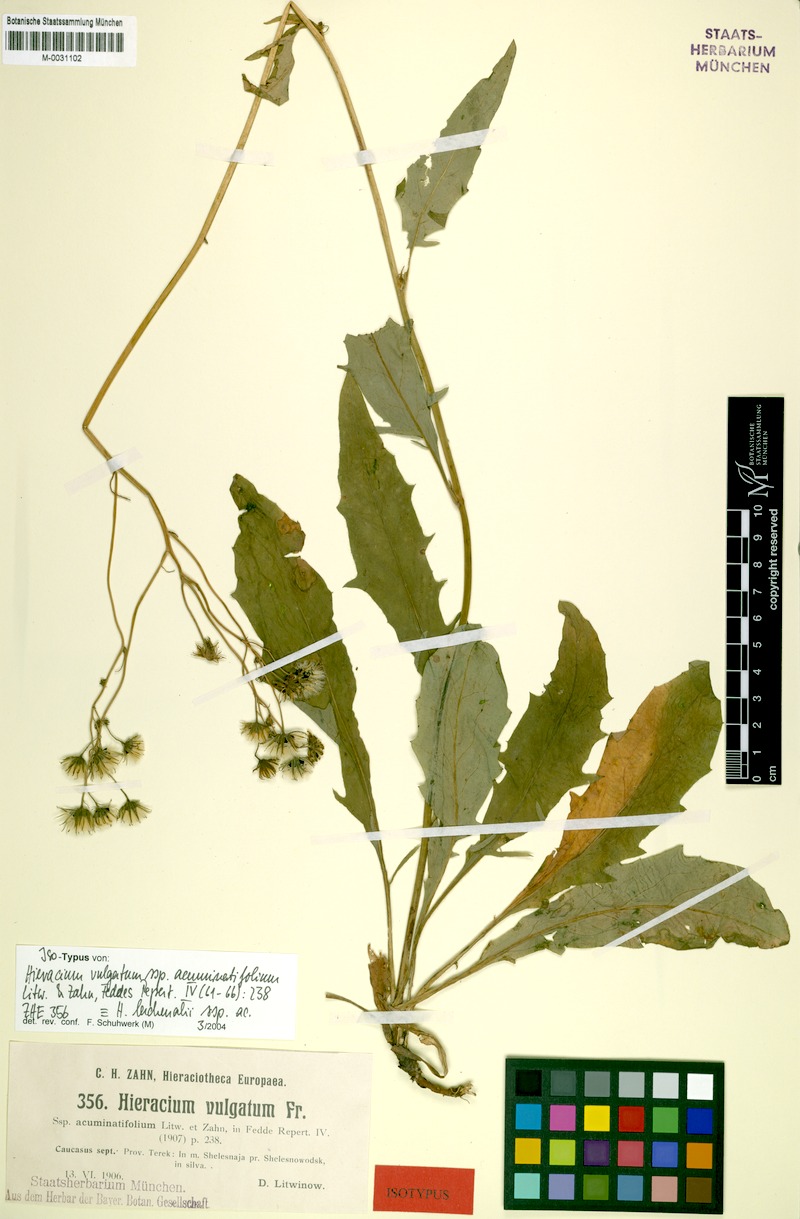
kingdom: Plantae
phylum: Tracheophyta
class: Magnoliopsida
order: Asterales
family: Asteraceae
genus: Hieracium
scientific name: Hieracium lachenalii
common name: Common hawkweed
